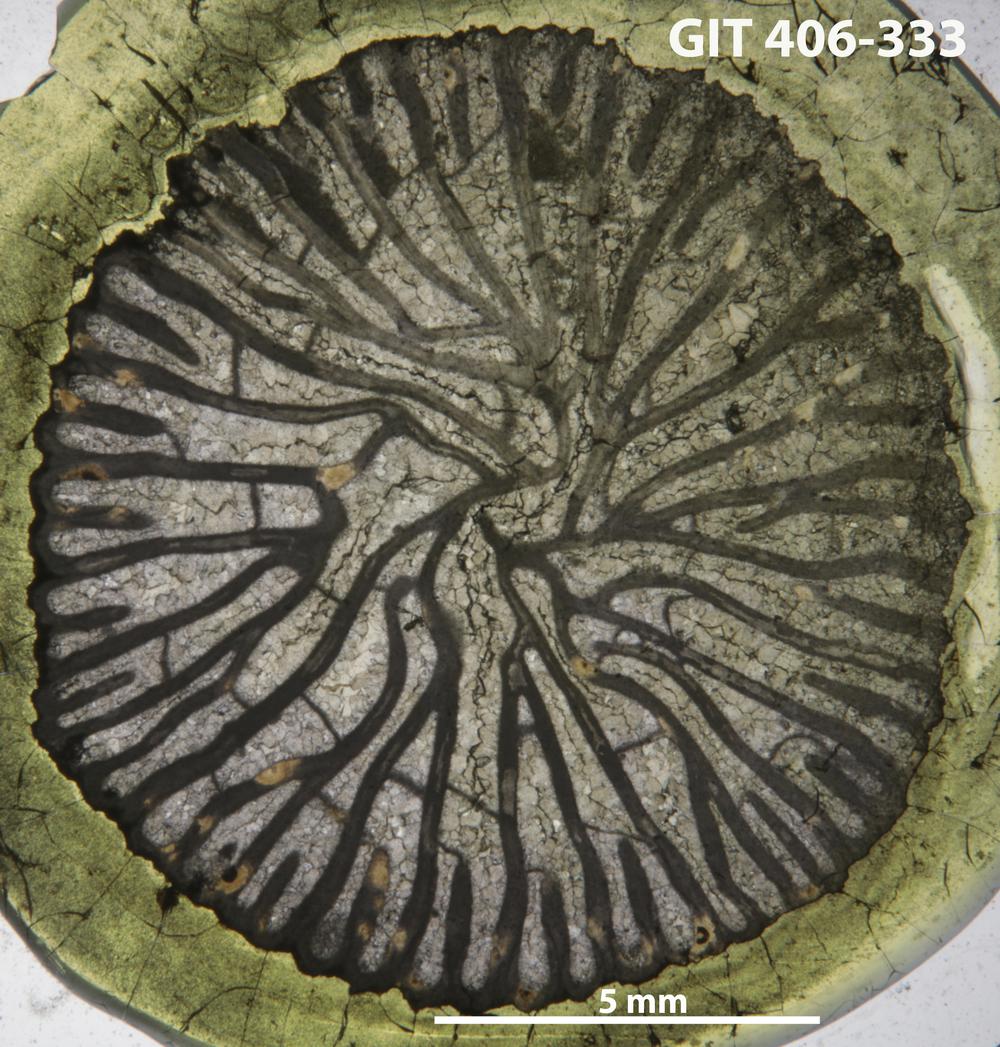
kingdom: Animalia
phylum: Cnidaria
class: Anthozoa
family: Streptelasmatidae
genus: Streptelasma
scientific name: Streptelasma
